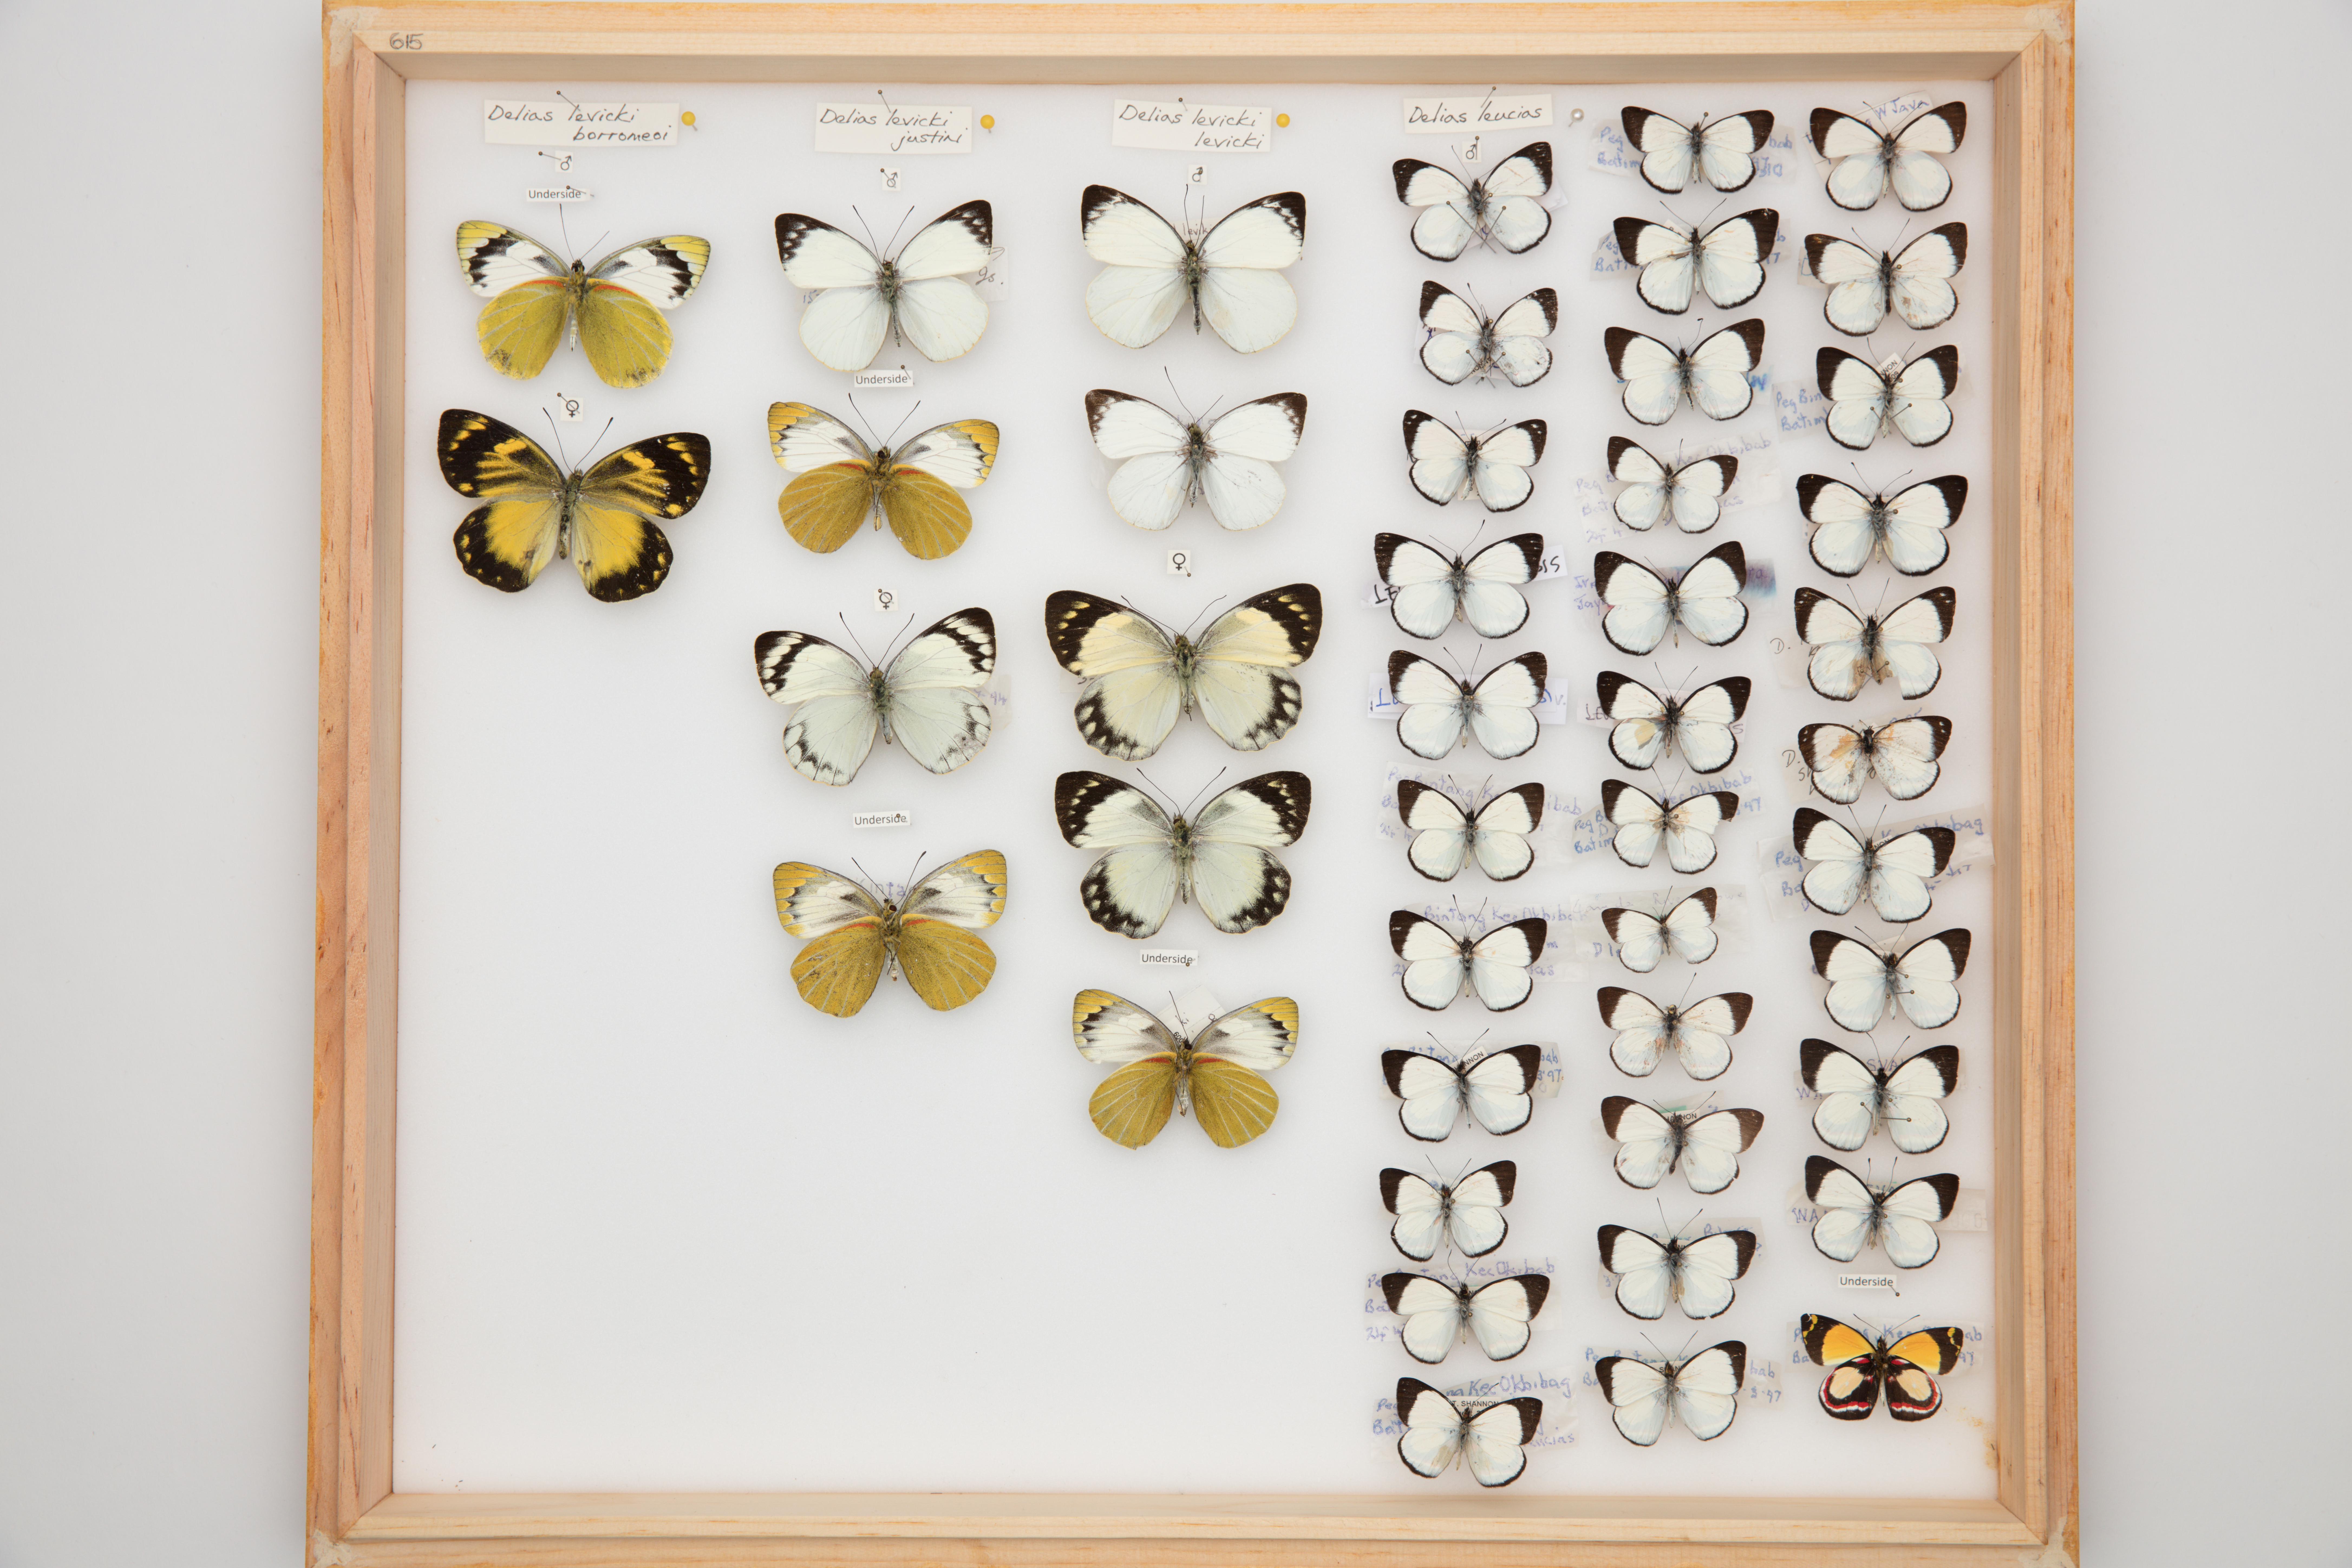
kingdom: Animalia
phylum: Arthropoda
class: Insecta
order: Lepidoptera
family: Pieridae
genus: Delias
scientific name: Delias leucias
